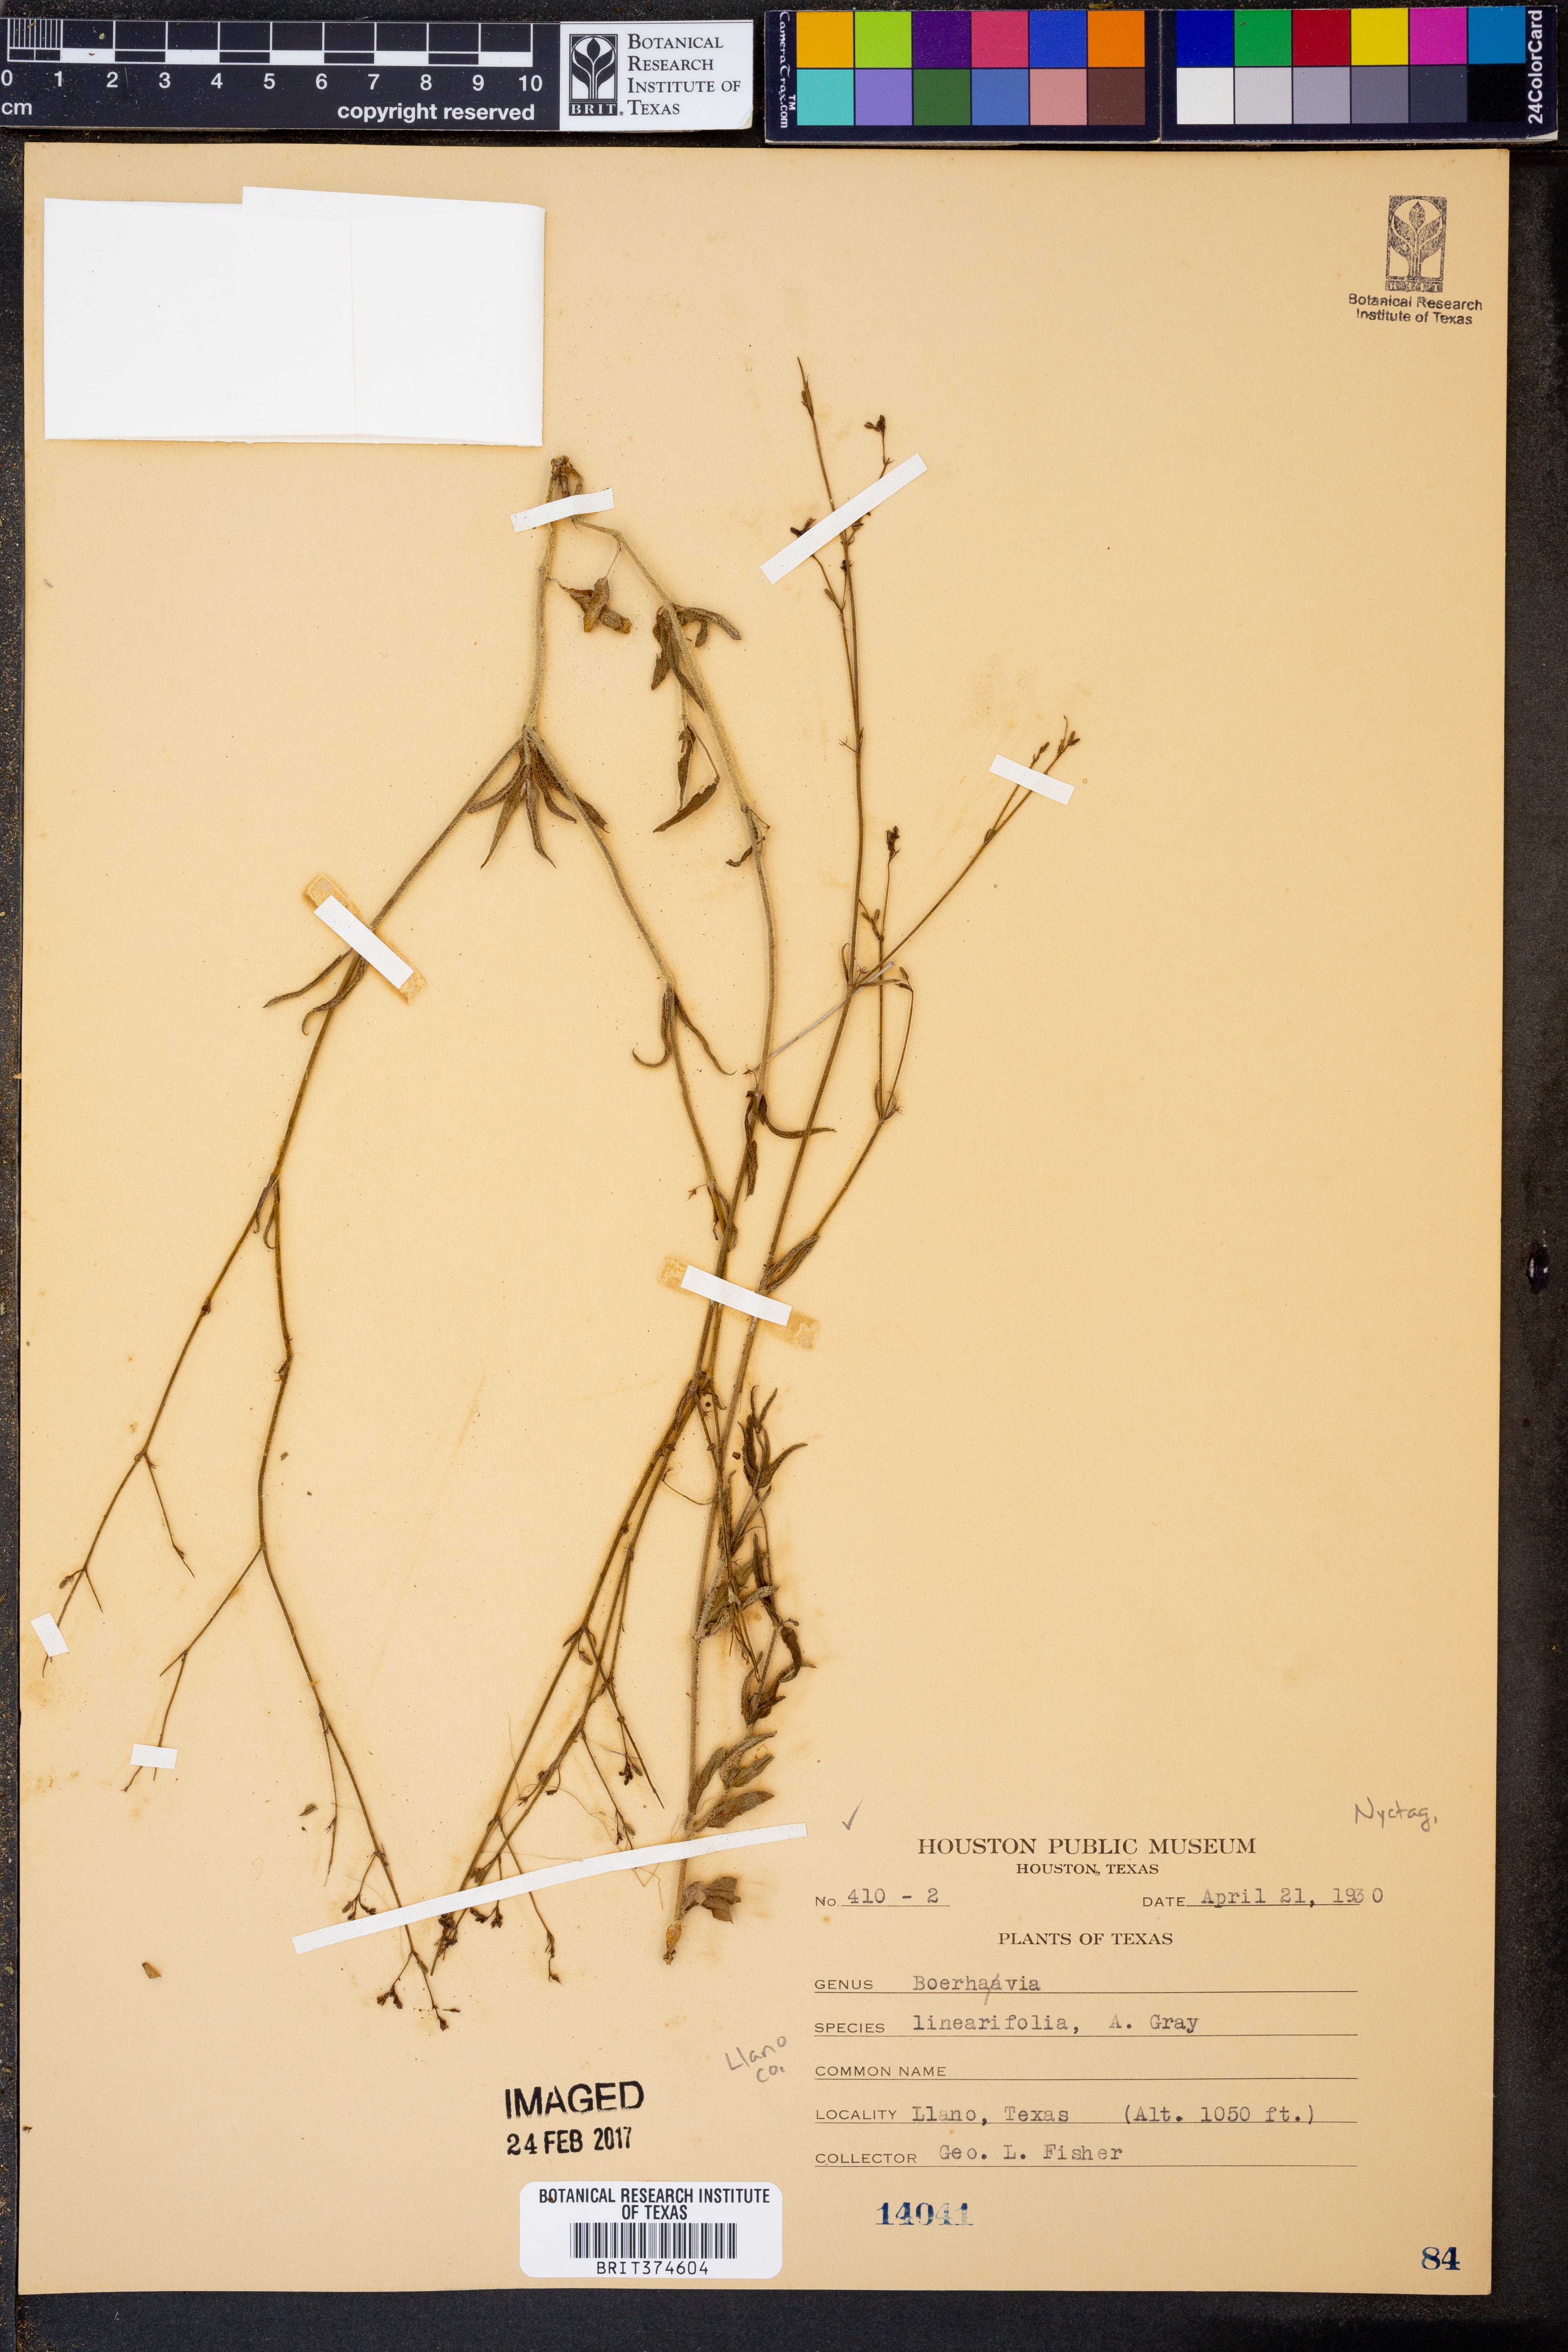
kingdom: Plantae
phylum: Tracheophyta
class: Magnoliopsida
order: Caryophyllales
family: Nyctaginaceae
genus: Boerhavia
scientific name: Boerhavia linearifolia
